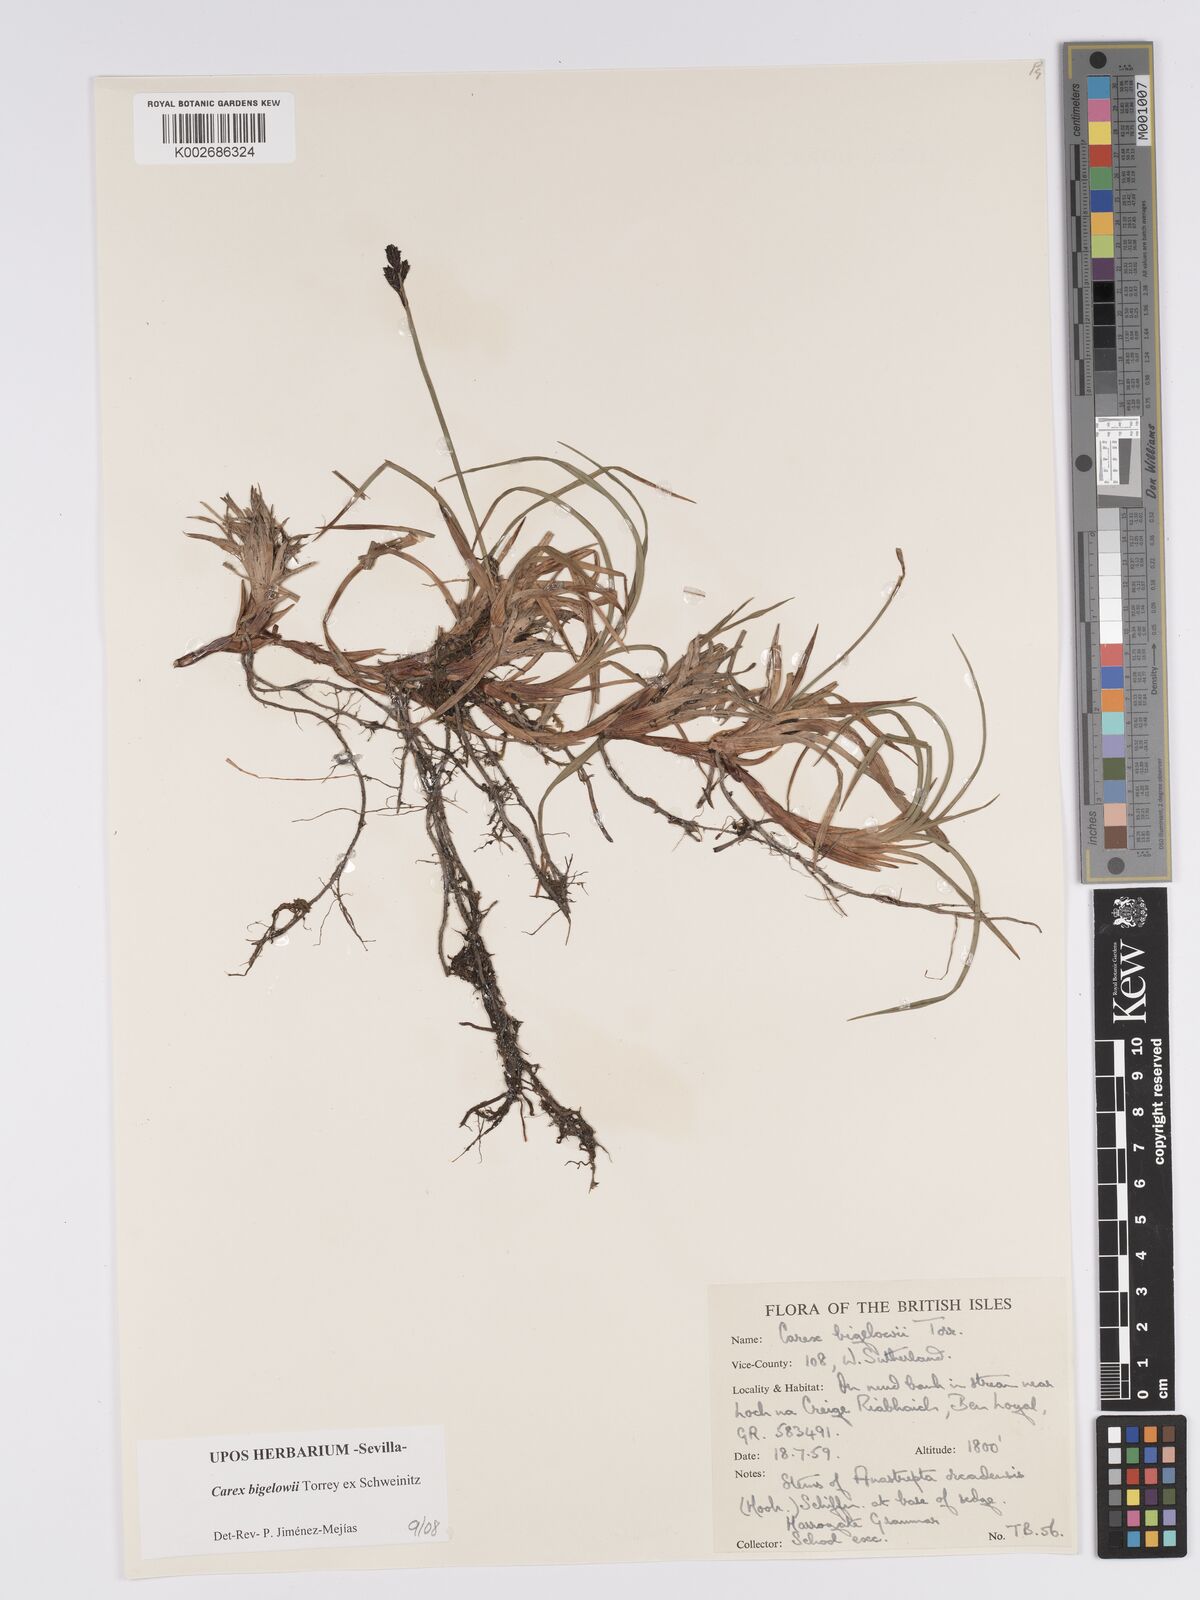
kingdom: Plantae
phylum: Tracheophyta
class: Liliopsida
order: Poales
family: Cyperaceae
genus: Carex
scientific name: Carex dacica
